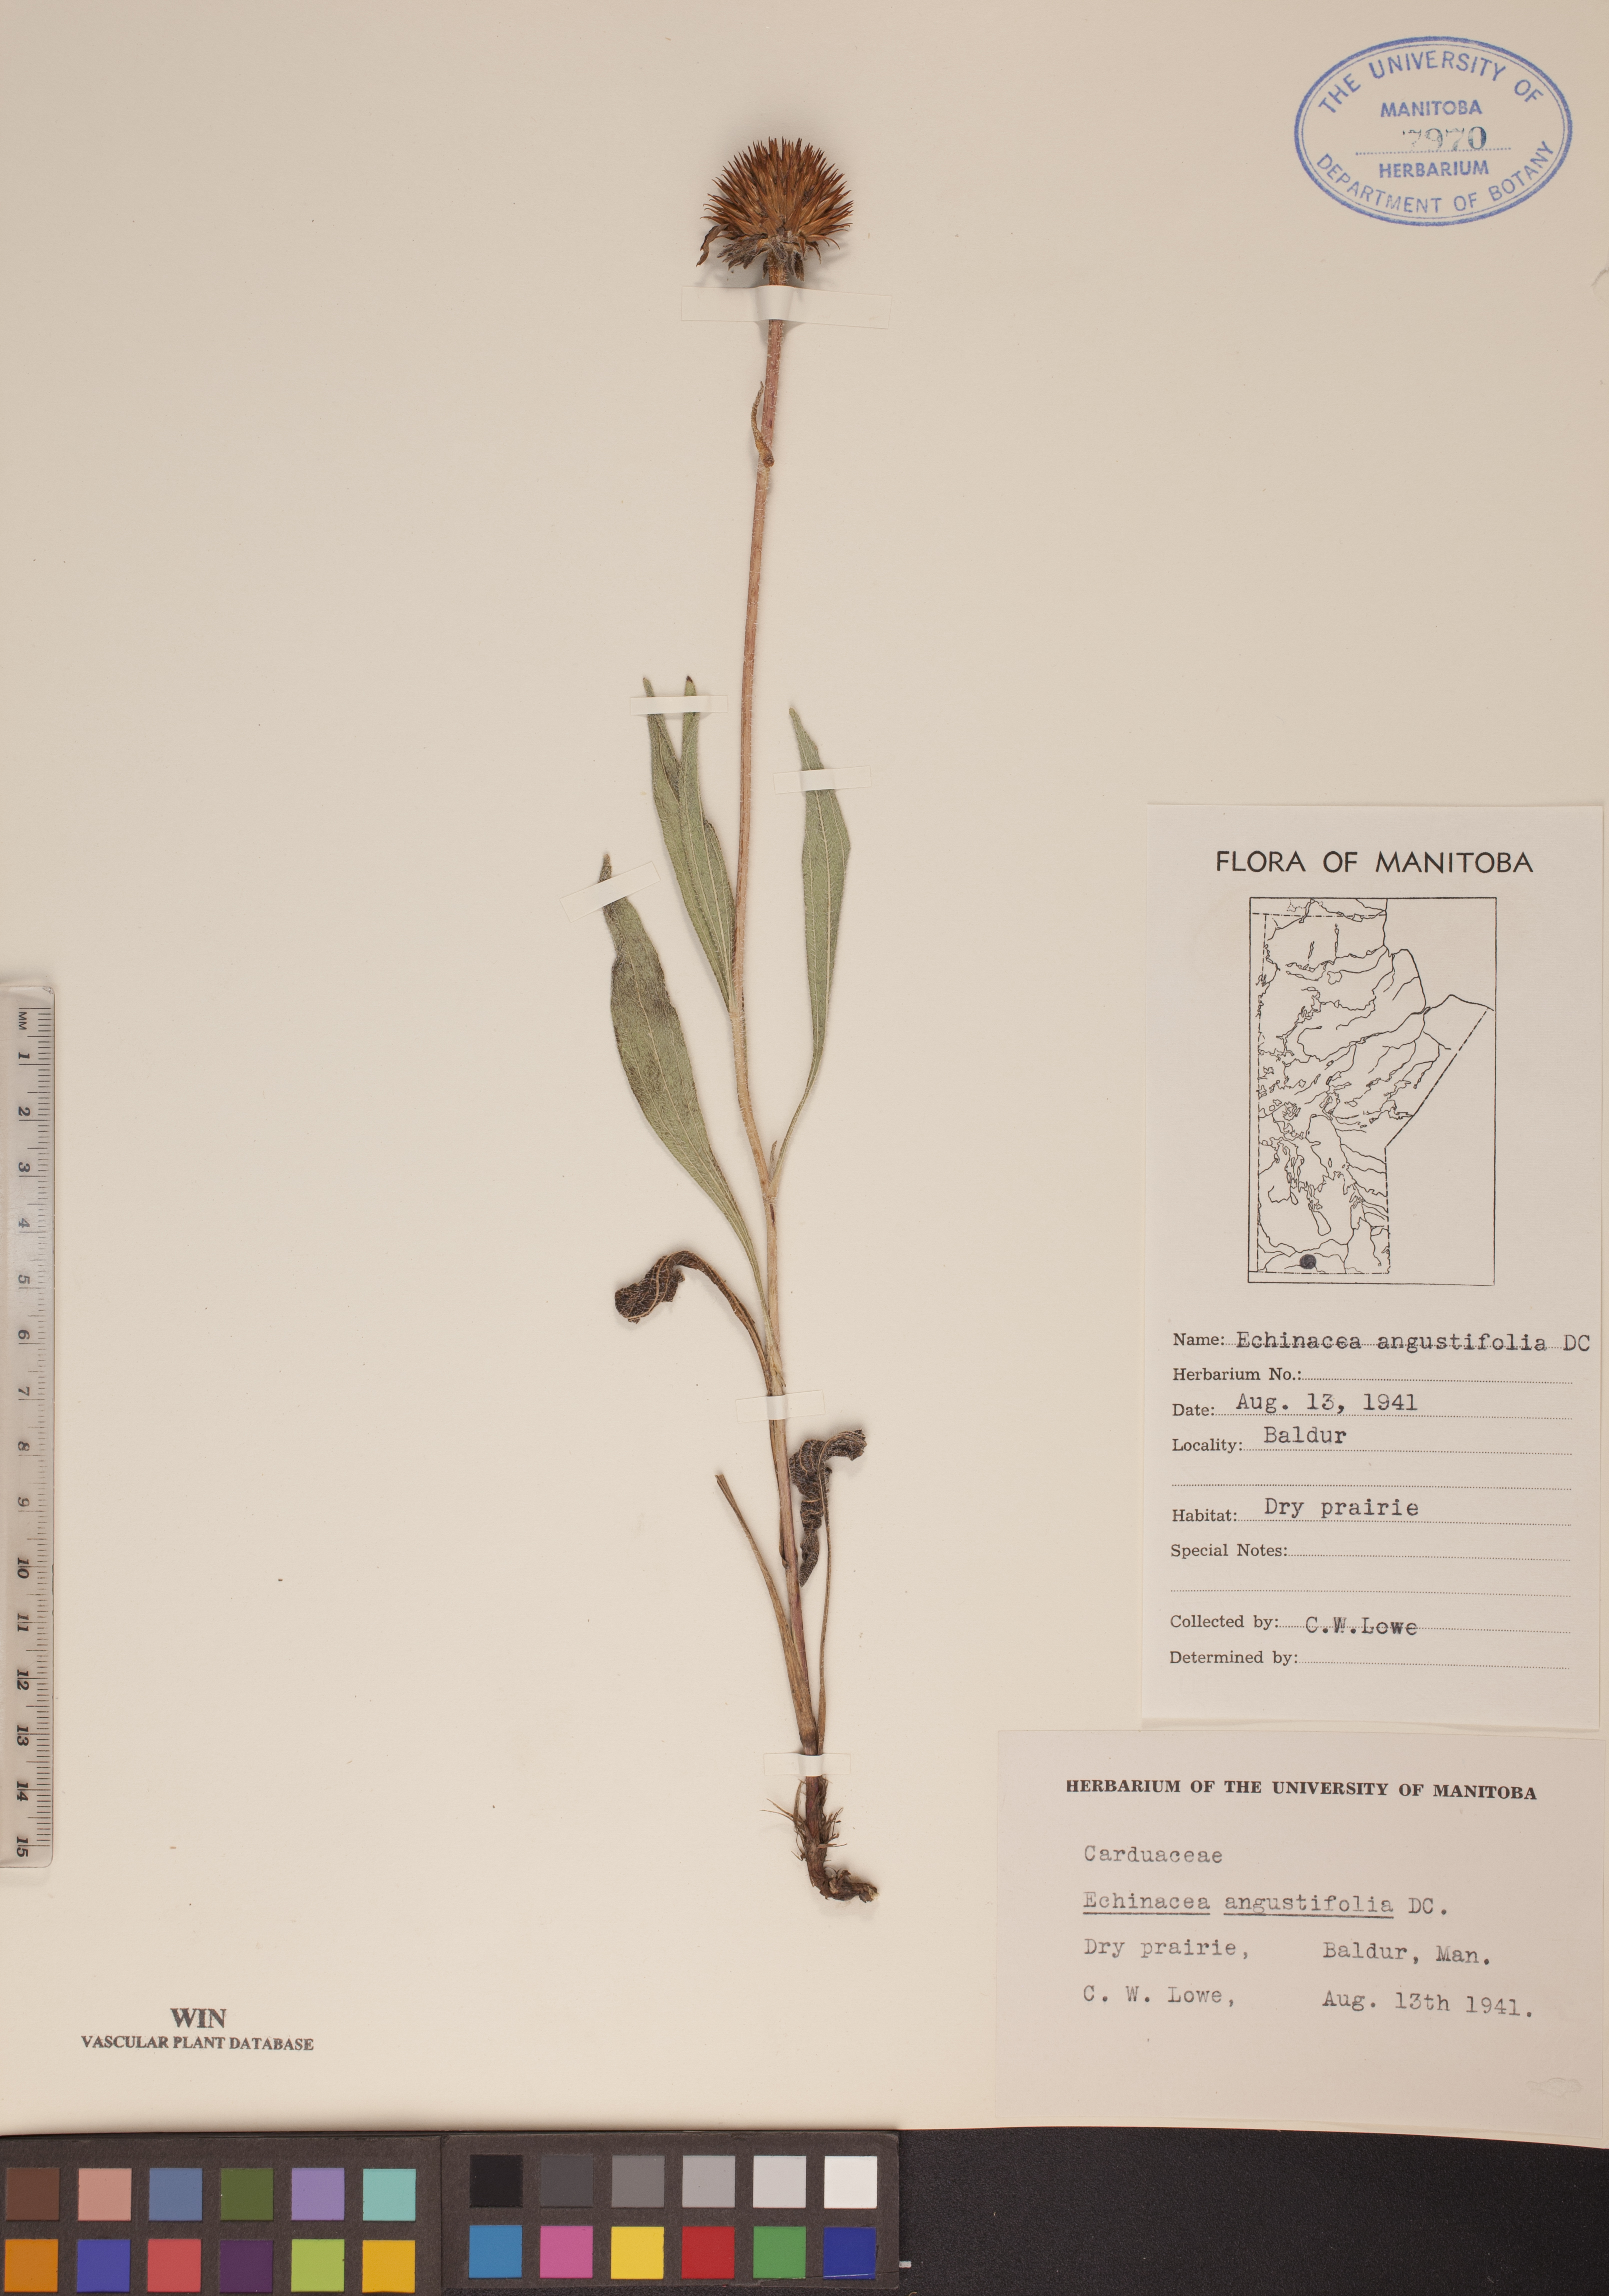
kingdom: Plantae
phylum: Tracheophyta
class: Magnoliopsida
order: Asterales
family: Asteraceae
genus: Echinacea
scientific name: Echinacea angustifolia
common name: Black-sampson echinacea
